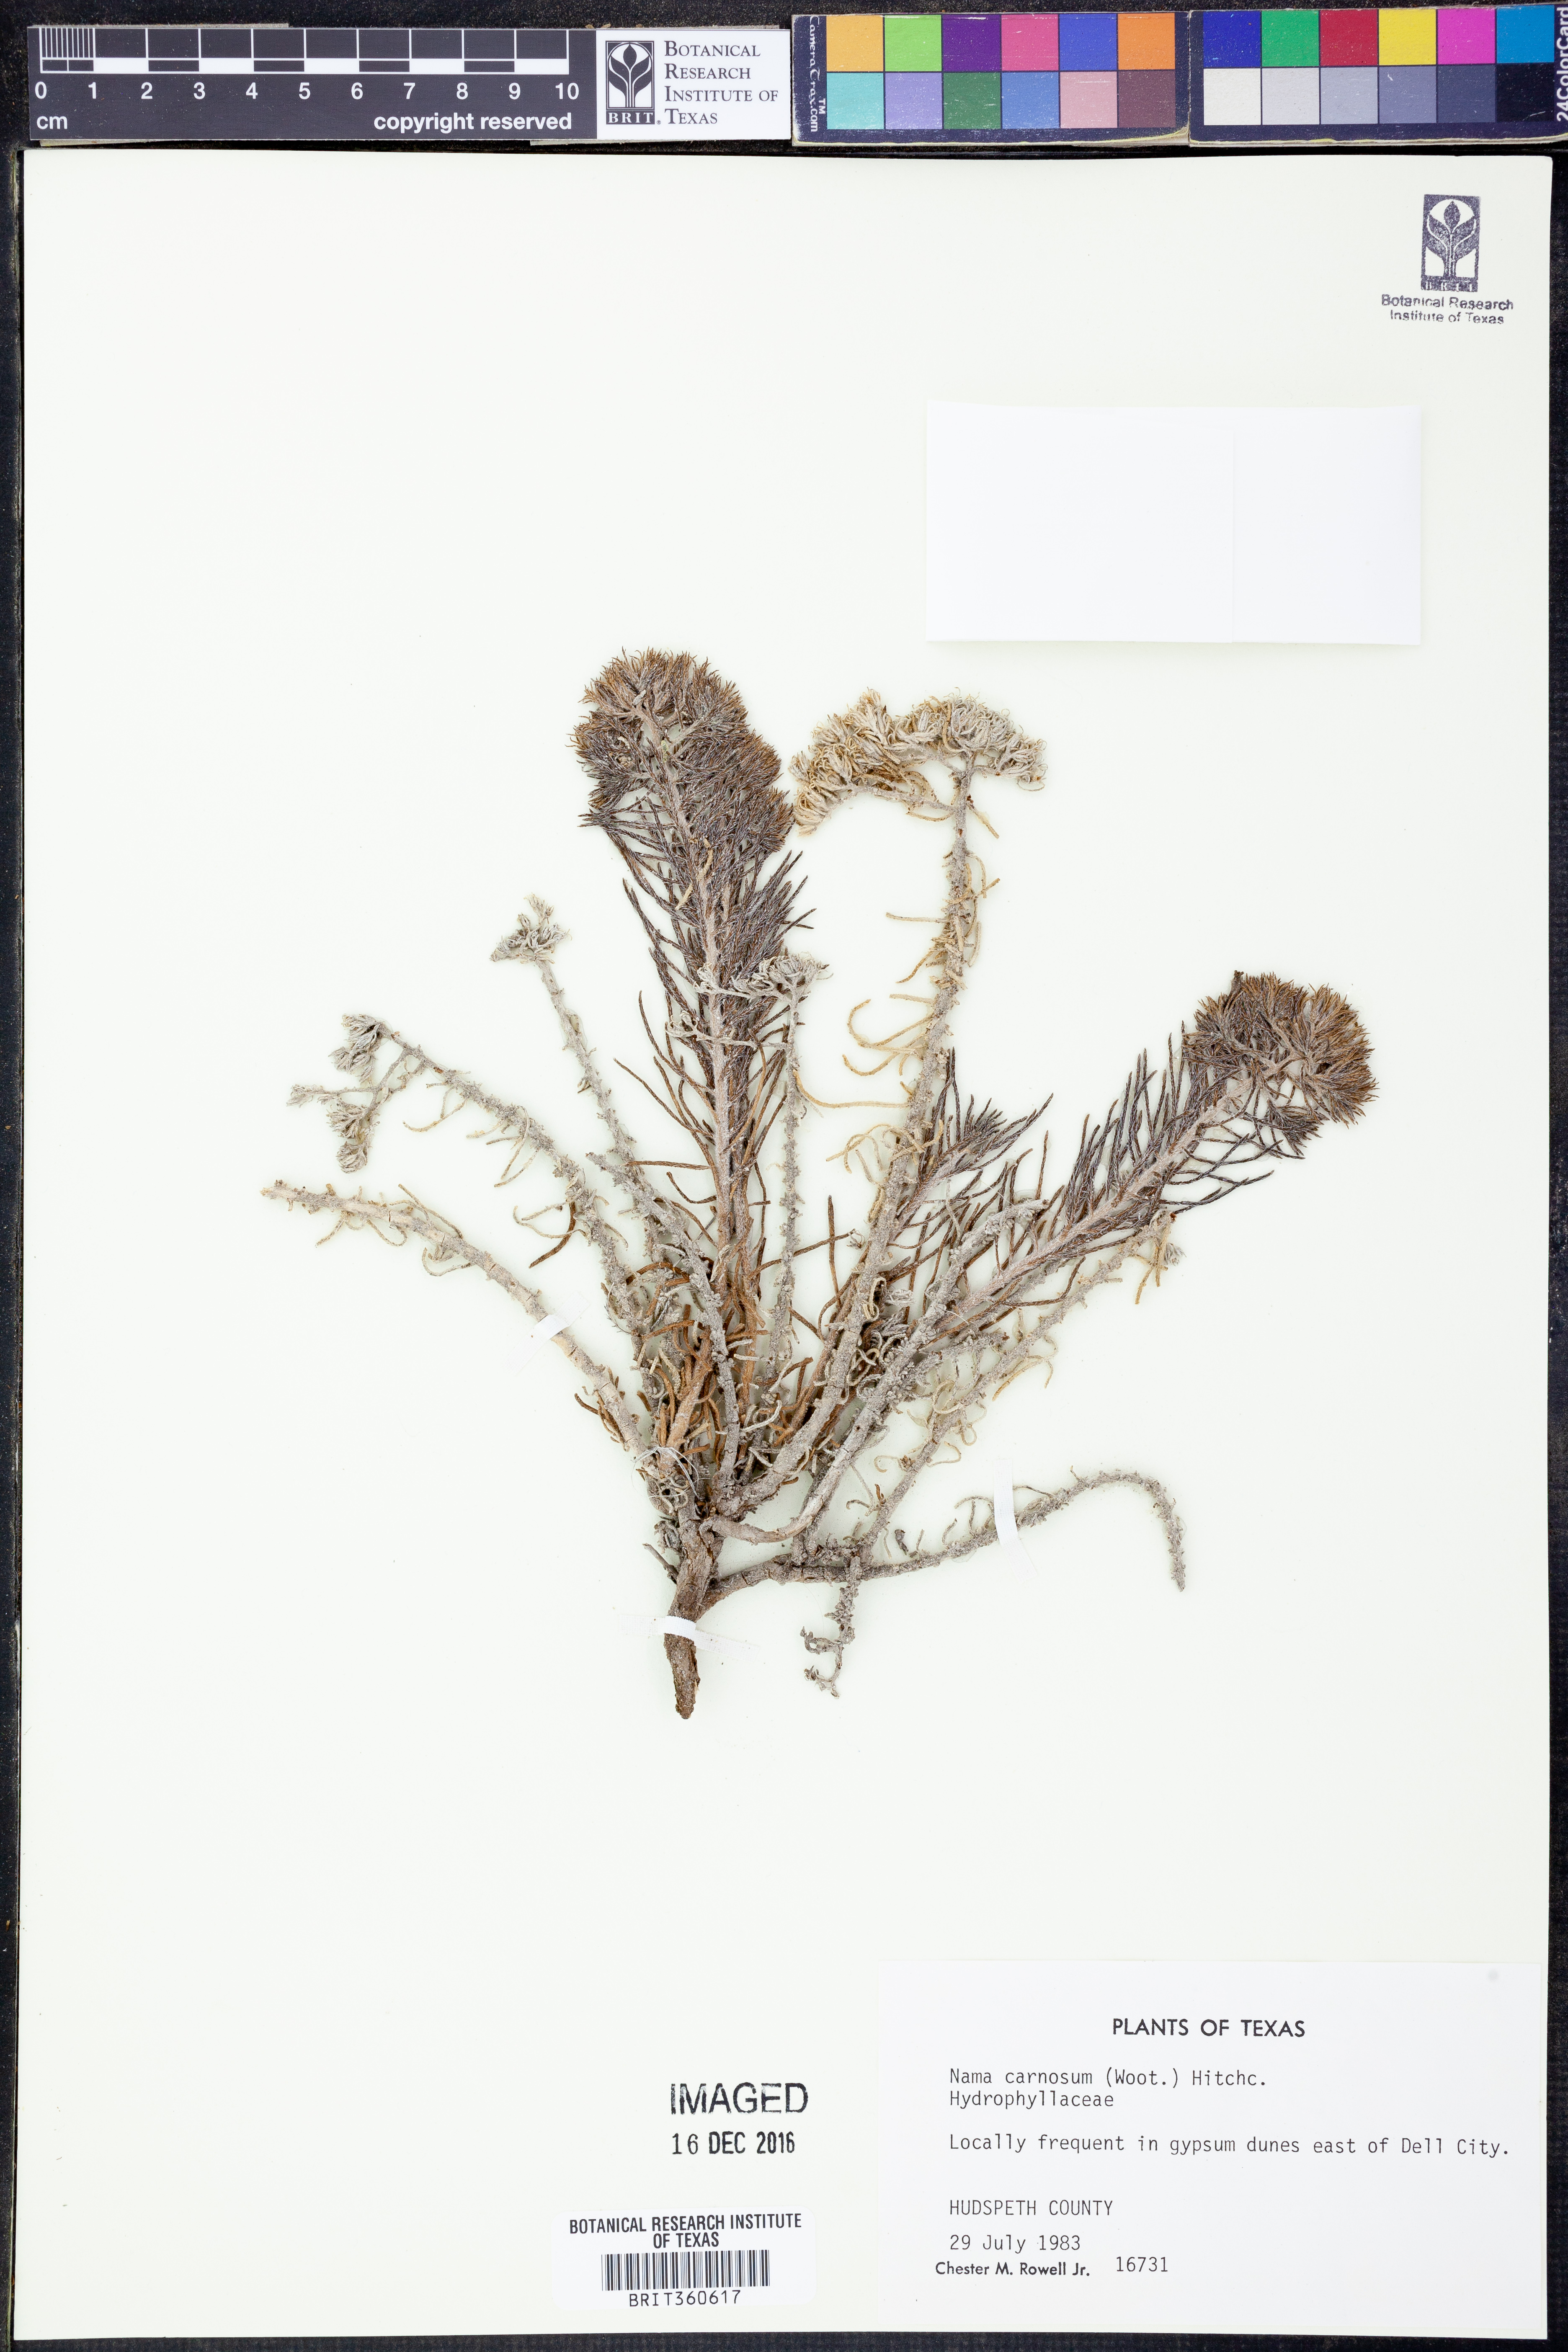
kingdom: Plantae
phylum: Tracheophyta
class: Magnoliopsida
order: Boraginales
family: Namaceae
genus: Andropus
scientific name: Andropus carnosus
